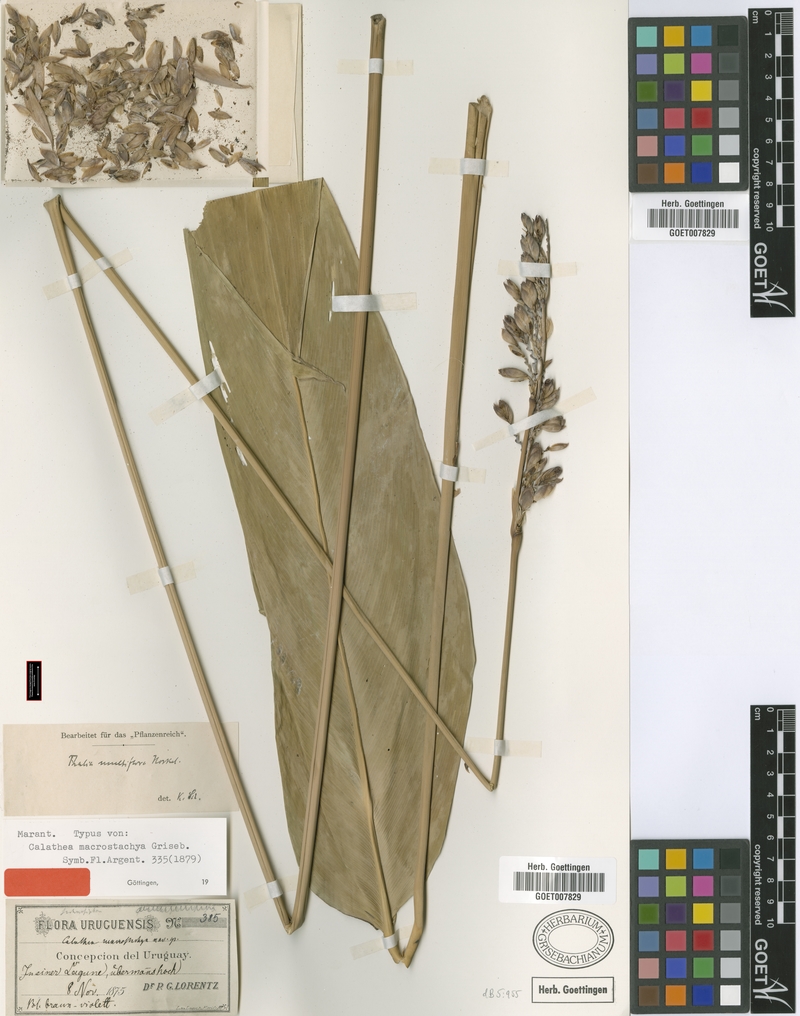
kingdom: Plantae
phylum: Tracheophyta
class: Liliopsida
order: Zingiberales
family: Marantaceae
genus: Thalia
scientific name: Thalia multiflora
